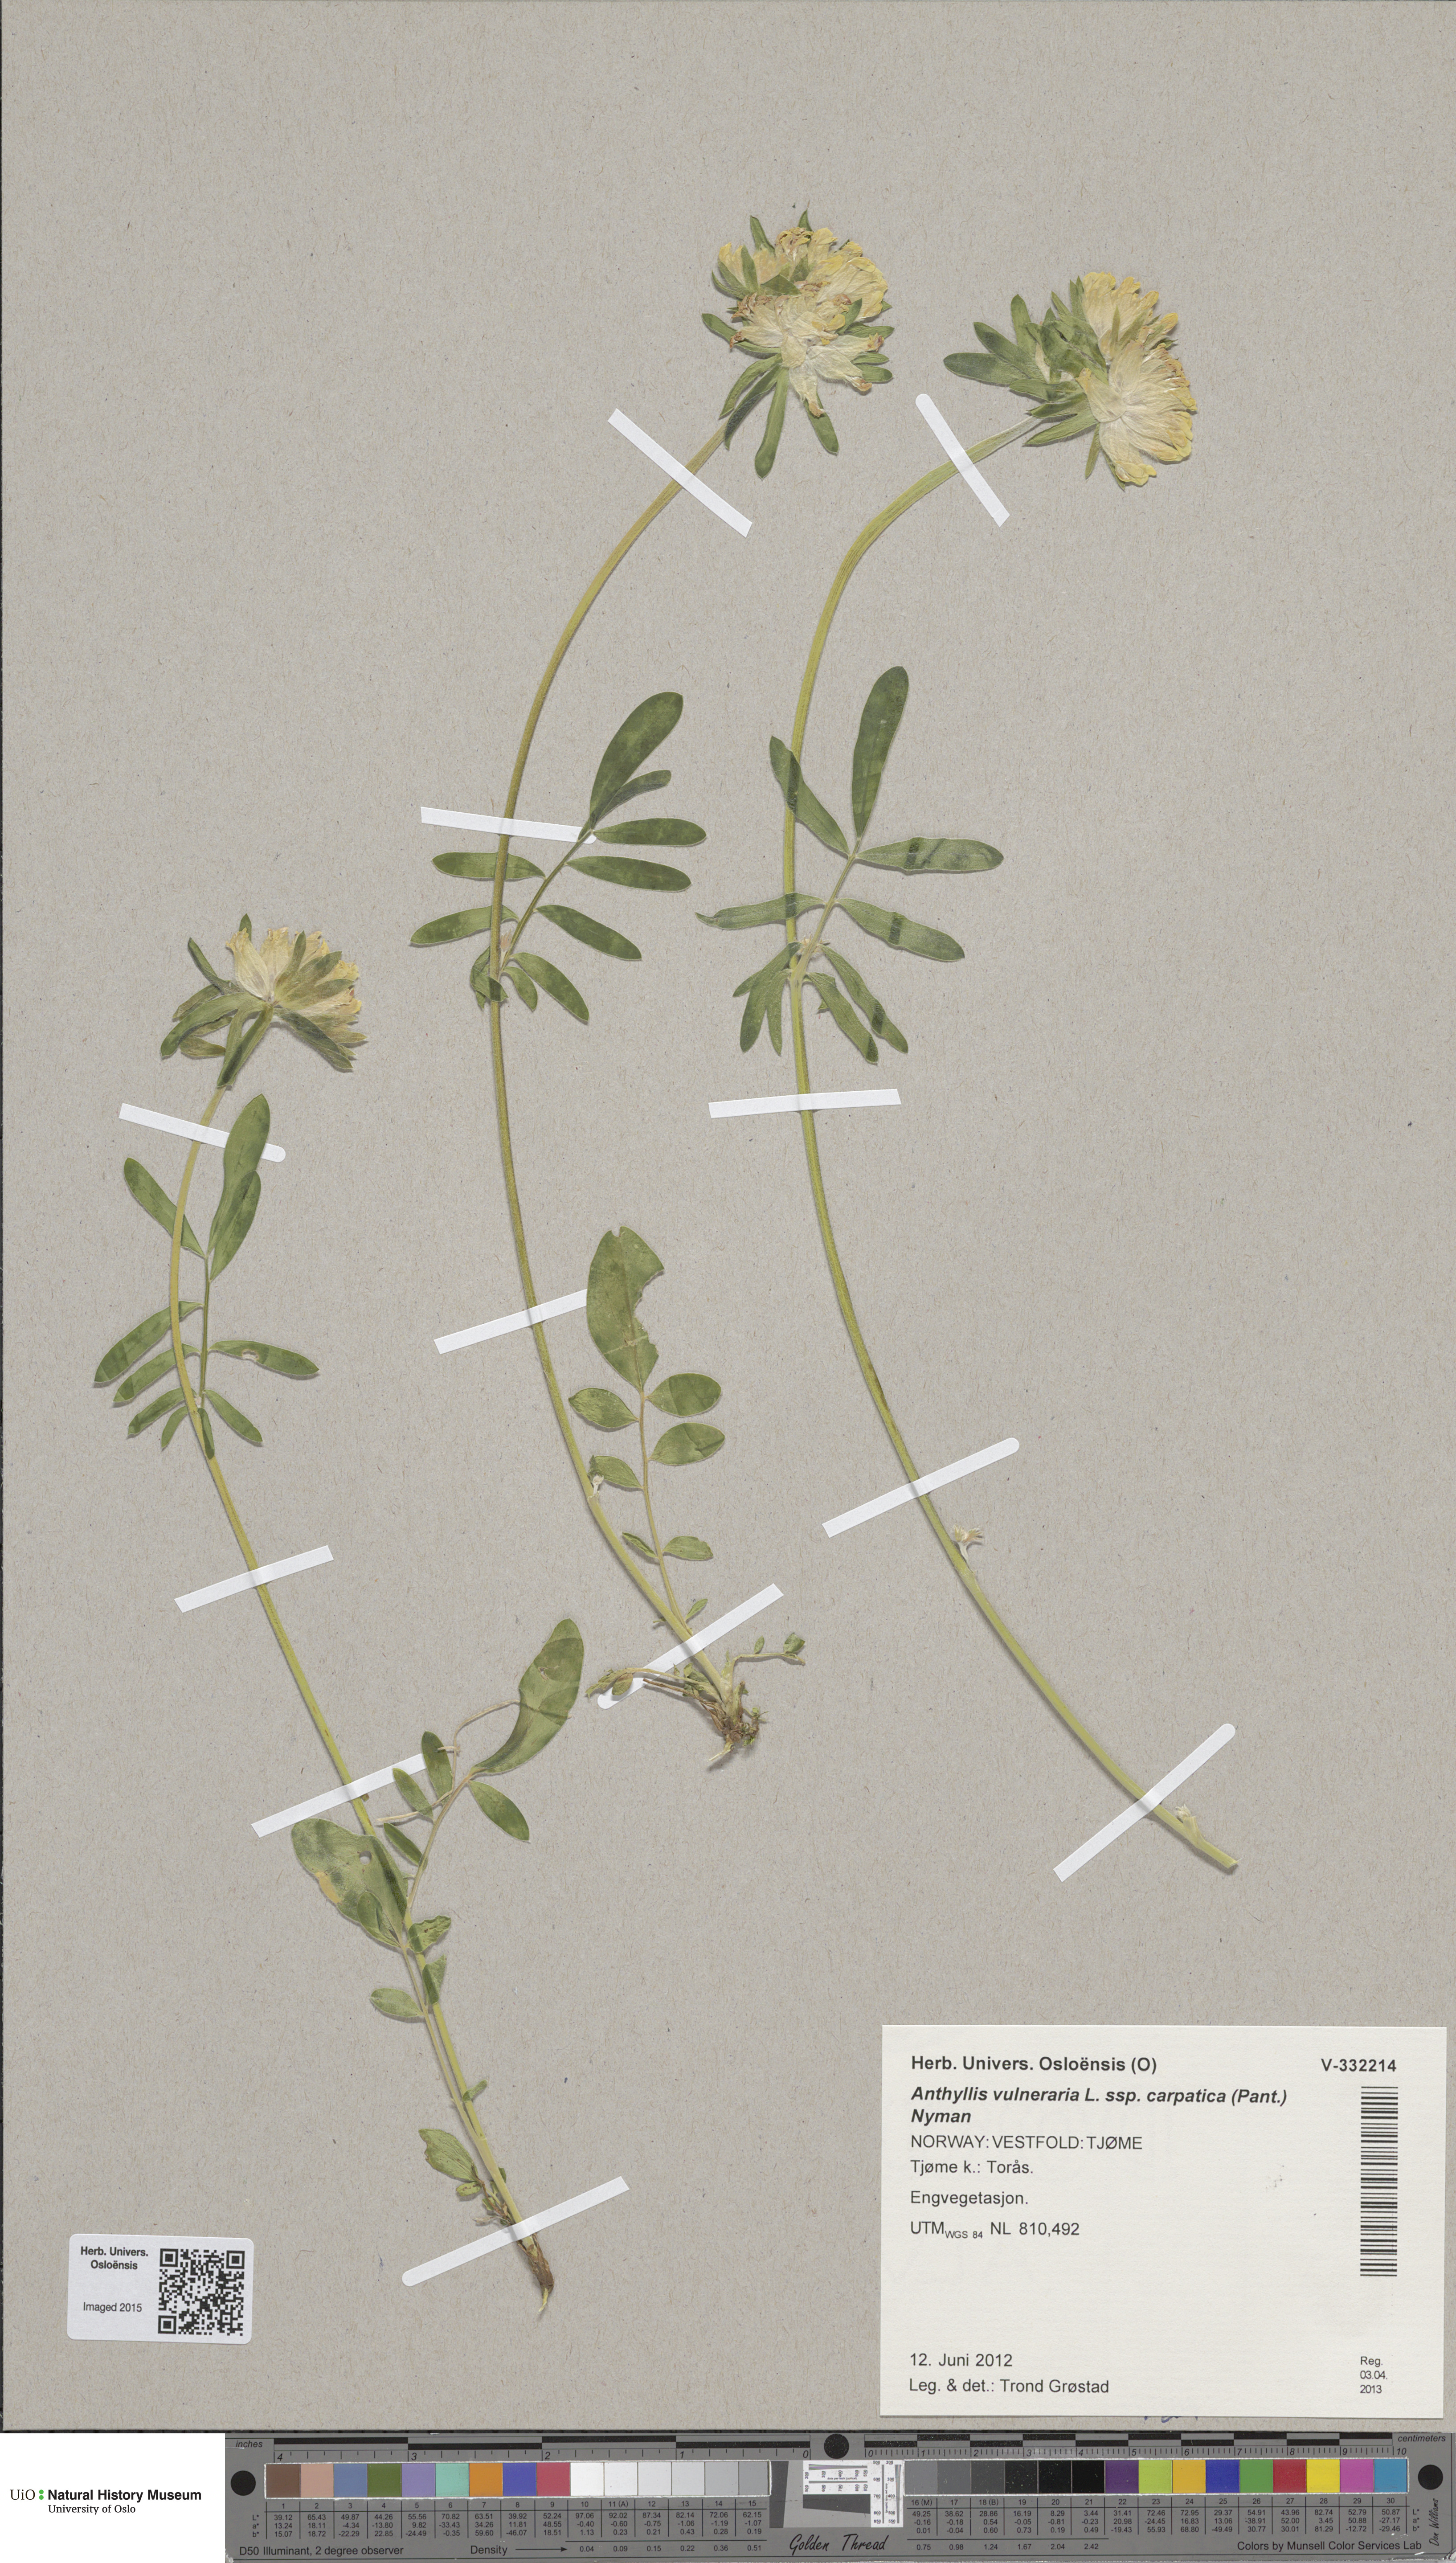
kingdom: Plantae
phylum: Tracheophyta
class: Magnoliopsida
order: Fabales
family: Fabaceae
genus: Anthyllis
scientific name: Anthyllis vulneraria
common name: Kidney vetch
